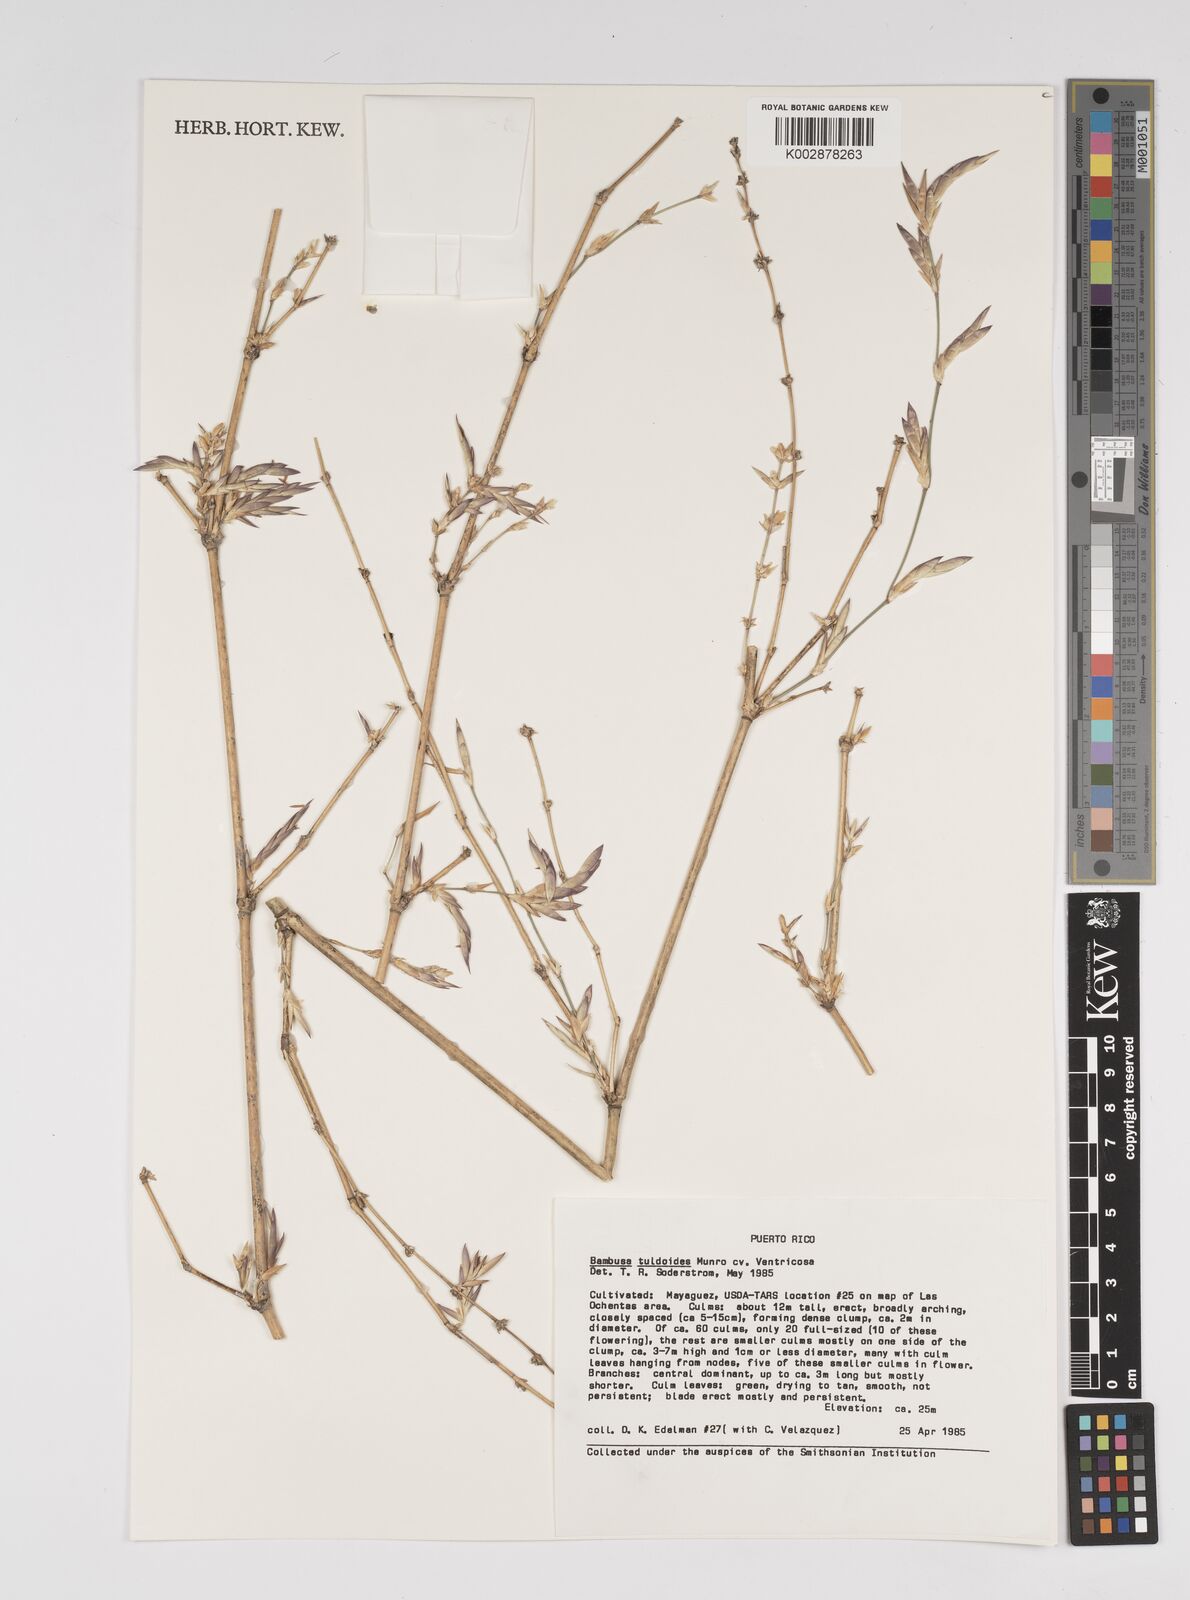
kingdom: Plantae
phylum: Tracheophyta
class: Liliopsida
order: Poales
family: Poaceae
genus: Bambusa
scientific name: Bambusa tuldoides
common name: Verdant bamboo
